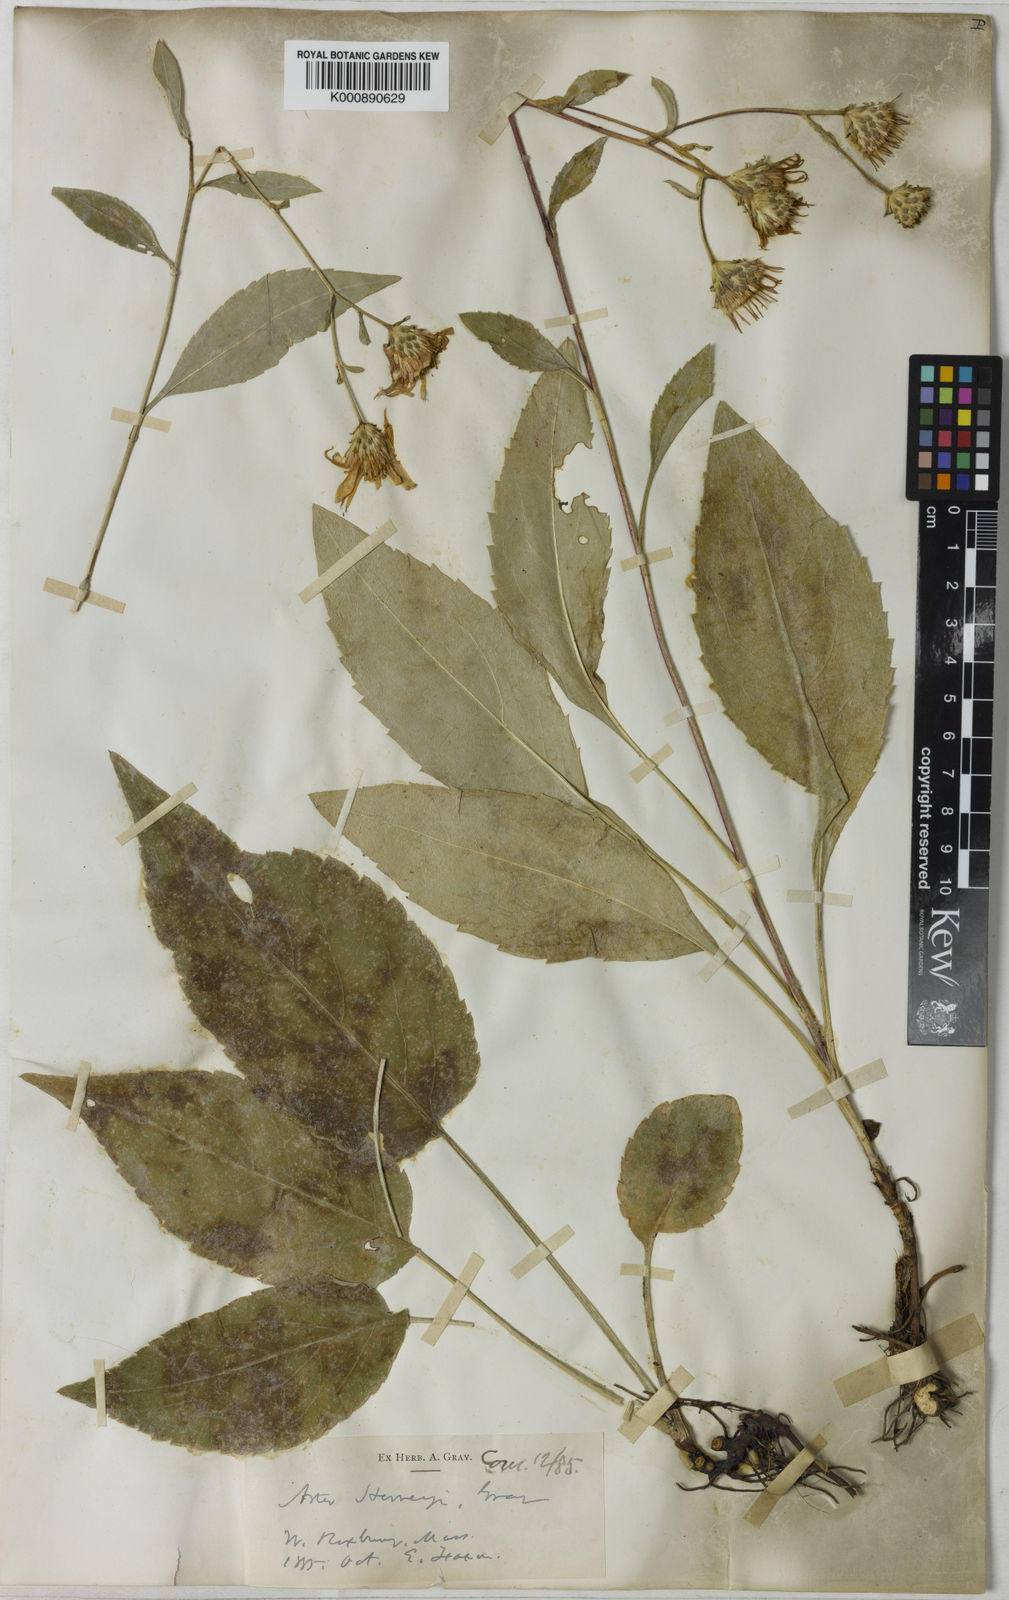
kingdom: Plantae
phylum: Tracheophyta
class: Magnoliopsida
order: Asterales
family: Asteraceae
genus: Eurybia
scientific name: Eurybia herveyi
